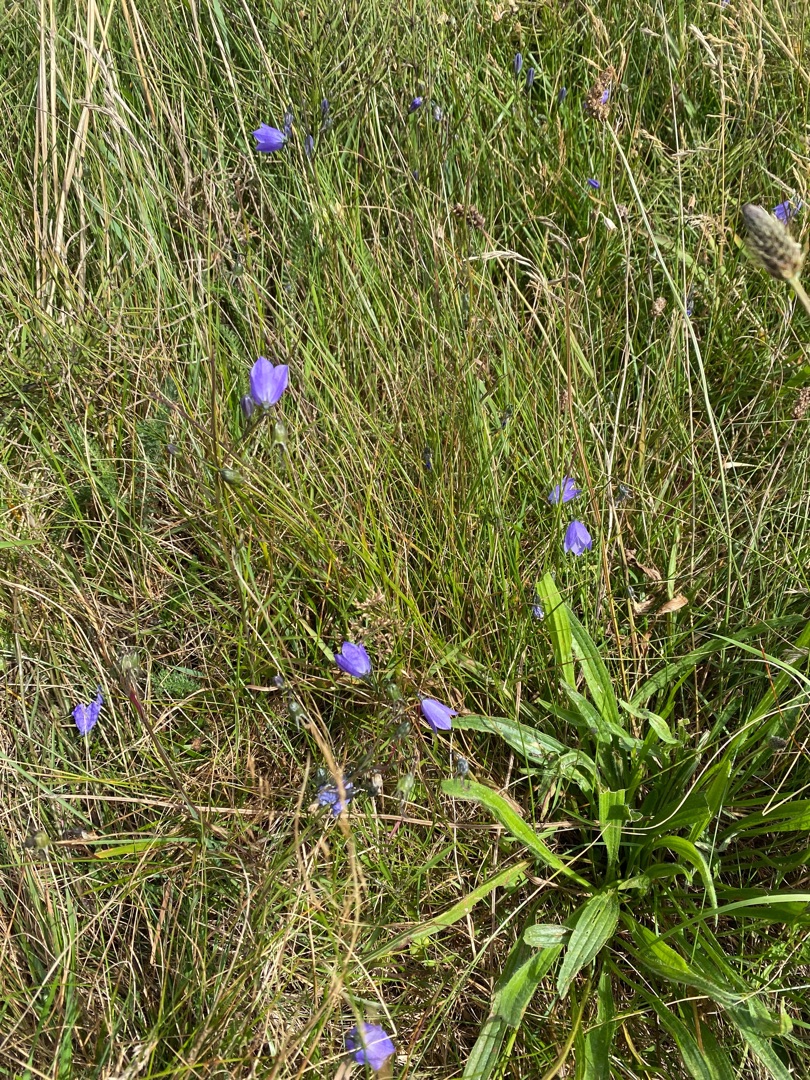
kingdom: Plantae
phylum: Tracheophyta
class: Magnoliopsida
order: Asterales
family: Campanulaceae
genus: Campanula
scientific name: Campanula rotundifolia
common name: Liden klokke
